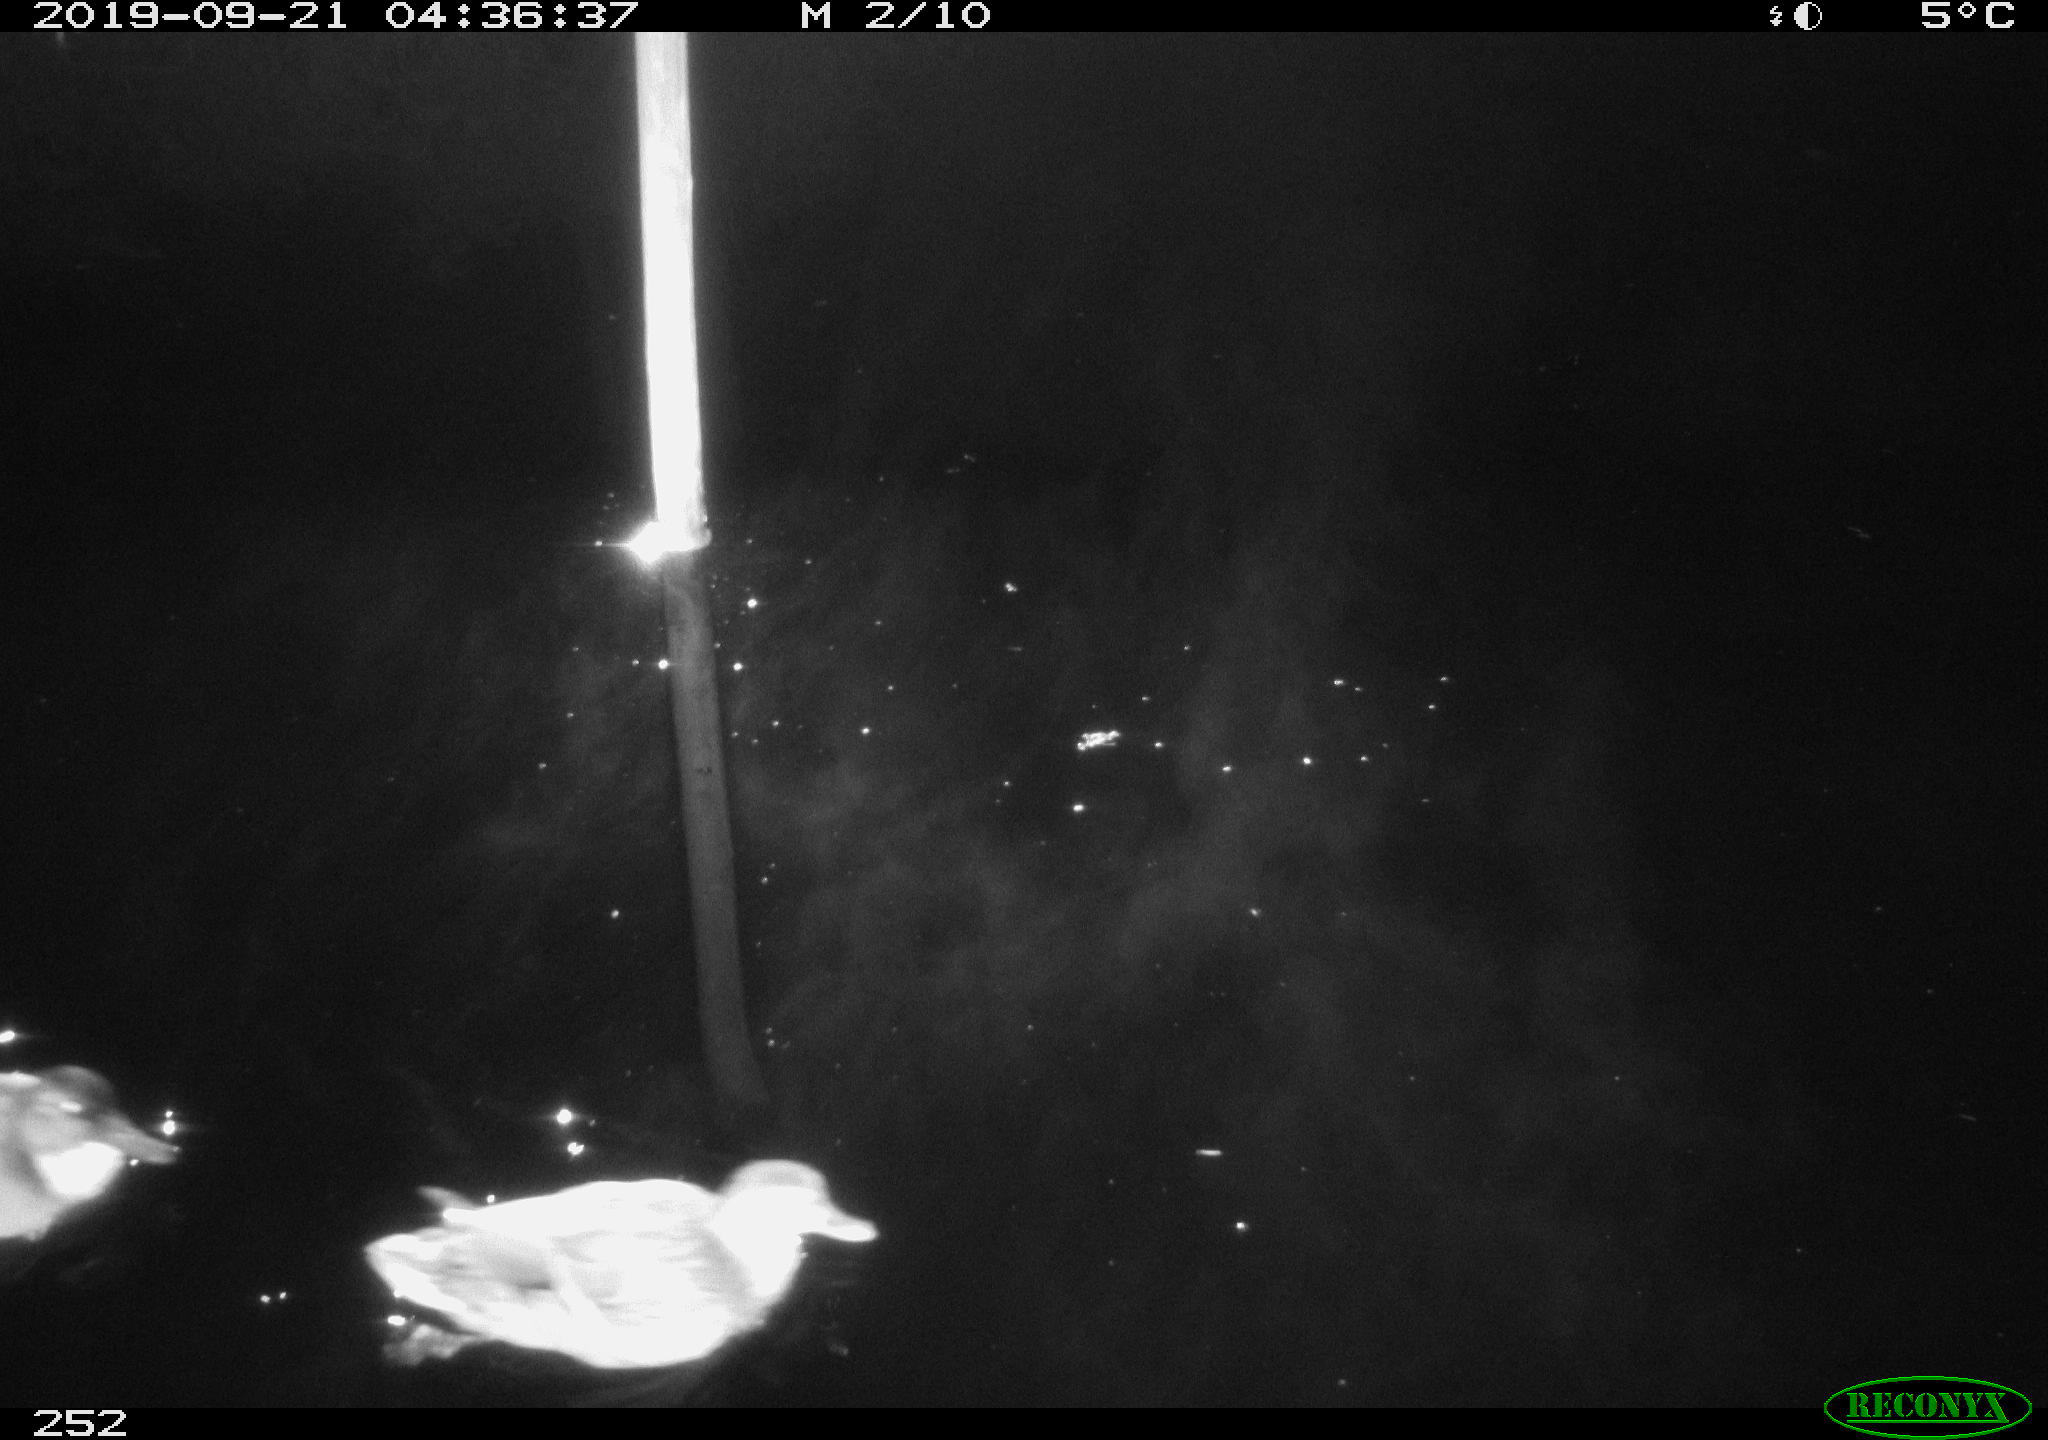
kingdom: Animalia
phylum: Chordata
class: Aves
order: Anseriformes
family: Anatidae
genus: Anas
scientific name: Anas platyrhynchos
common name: Mallard
